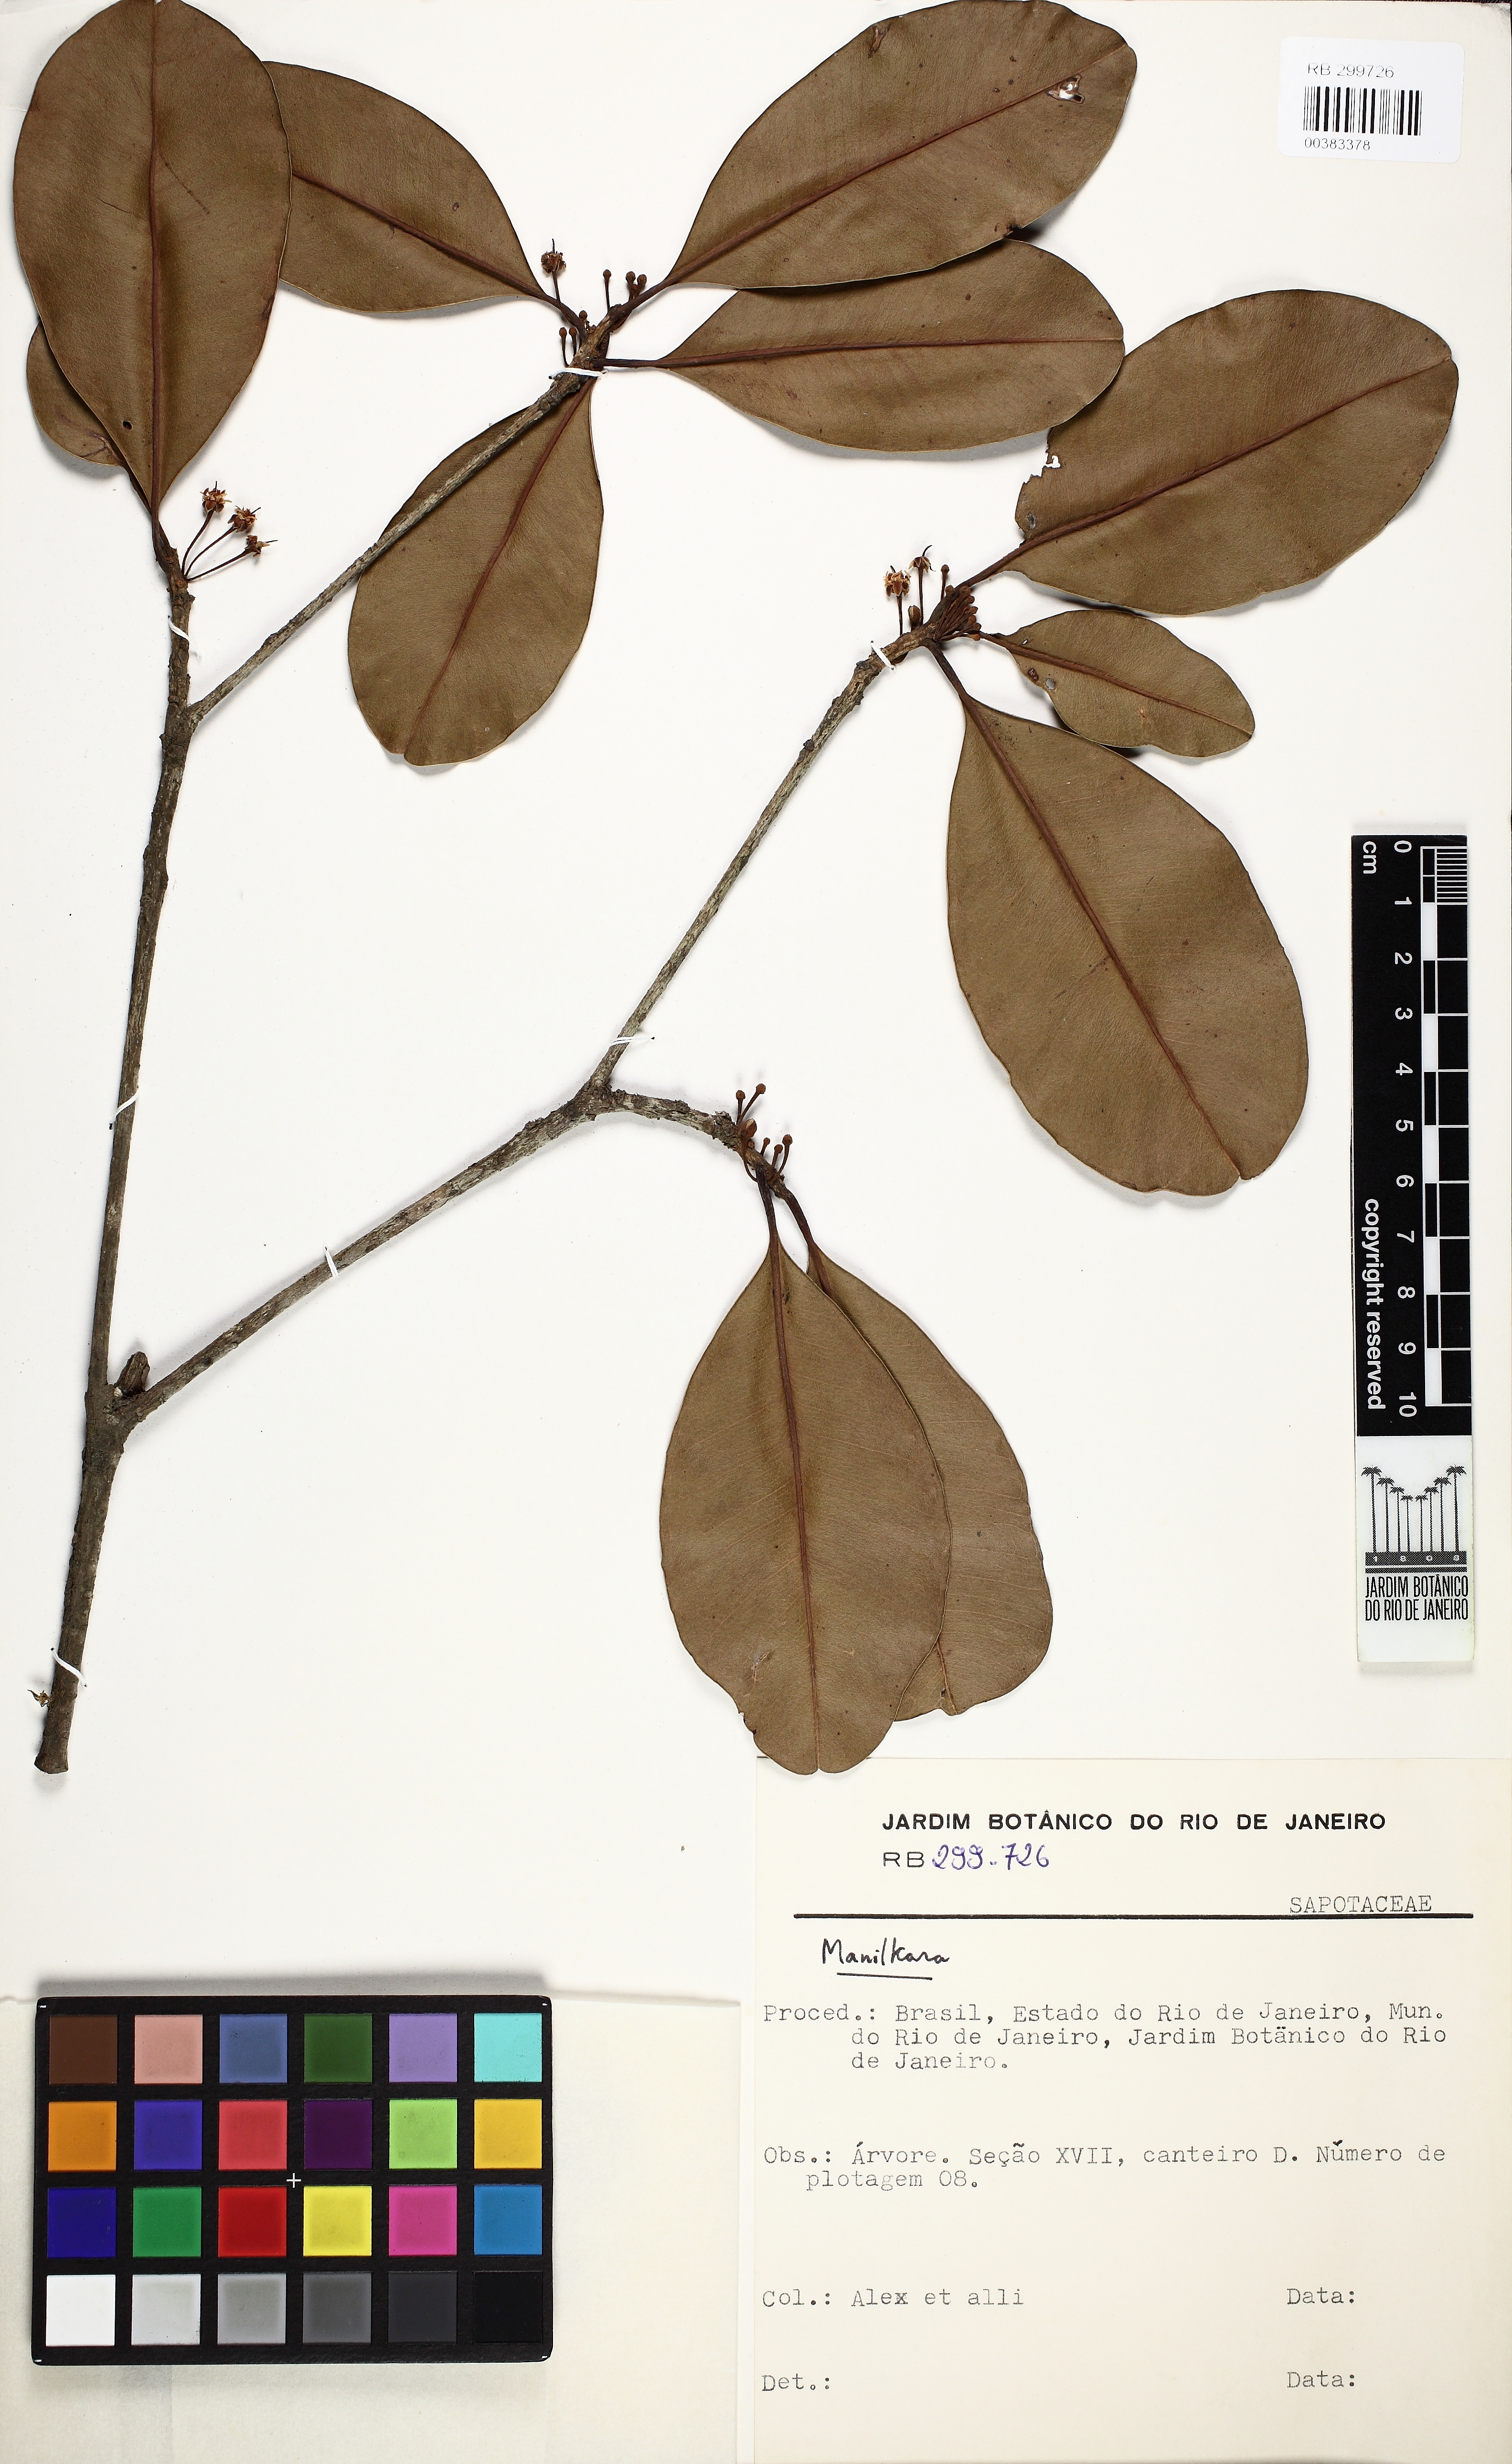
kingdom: Plantae
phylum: Tracheophyta
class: Magnoliopsida
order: Ericales
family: Sapotaceae
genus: Manilkara
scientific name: Manilkara
